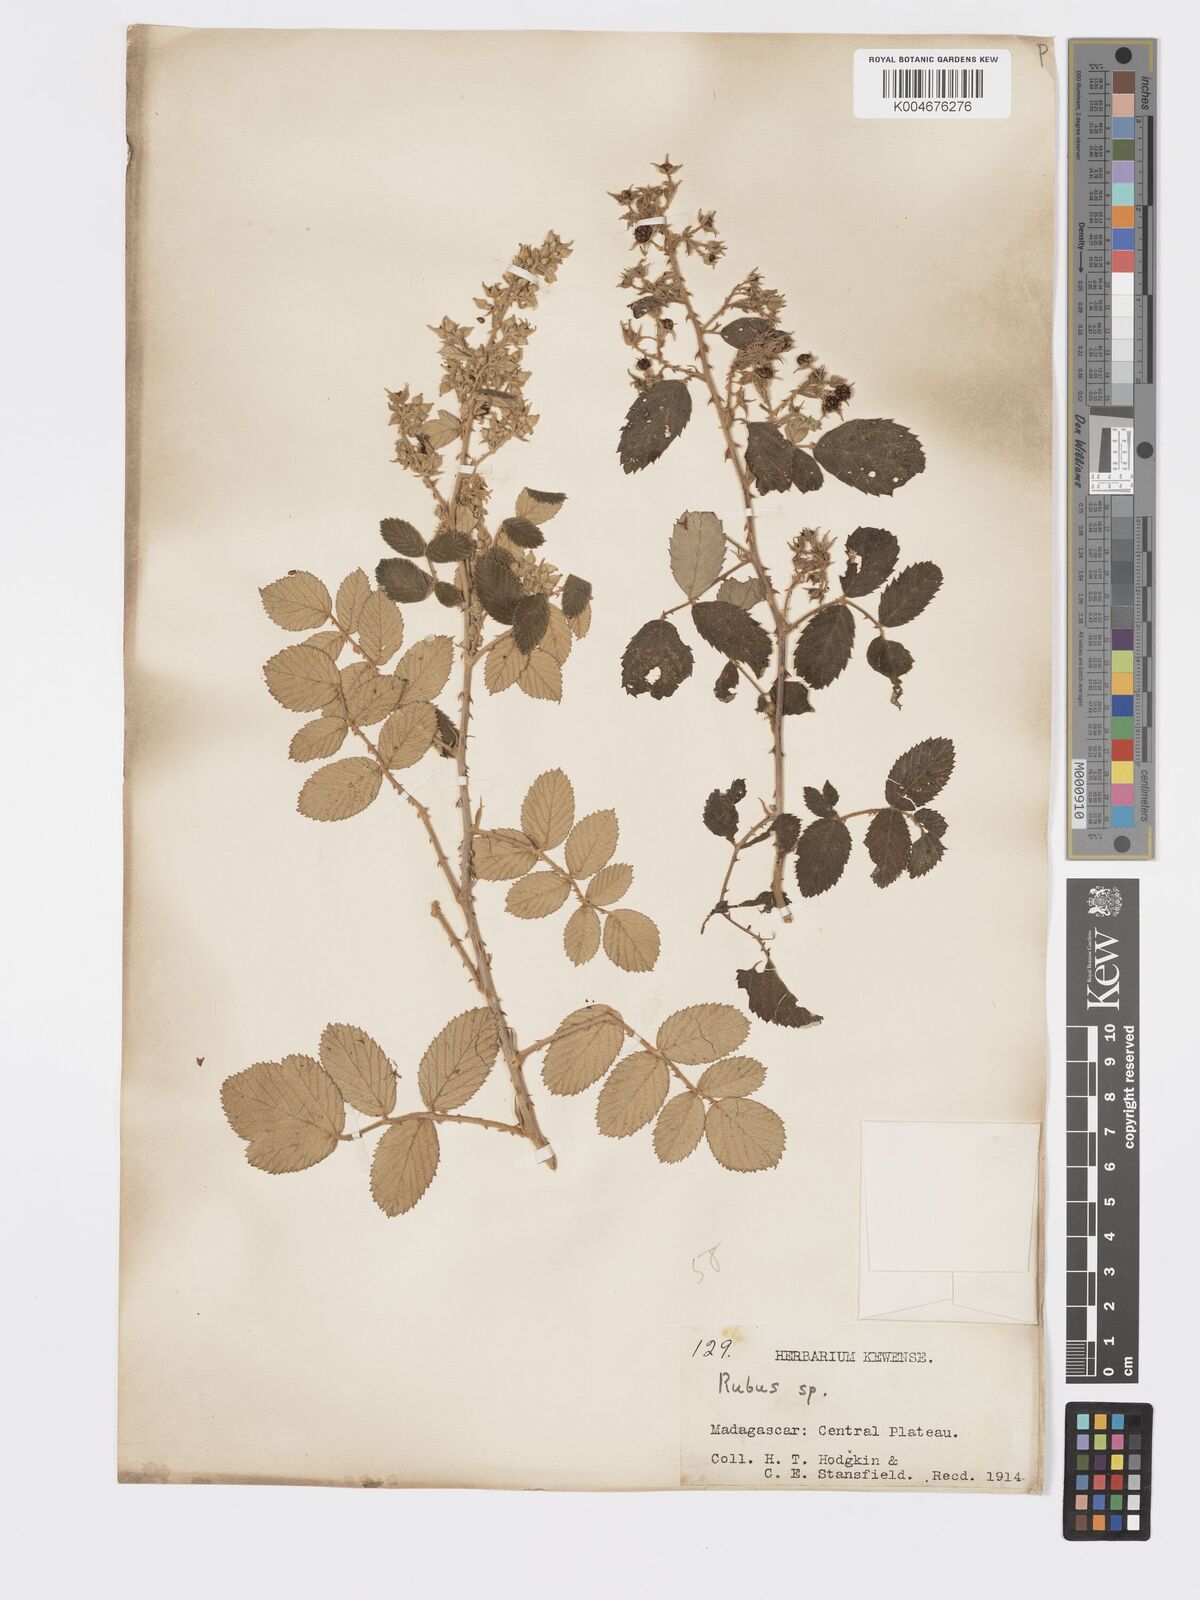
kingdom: Plantae
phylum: Tracheophyta
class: Magnoliopsida
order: Rosales
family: Rosaceae
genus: Rubus
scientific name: Rubus apetalus
